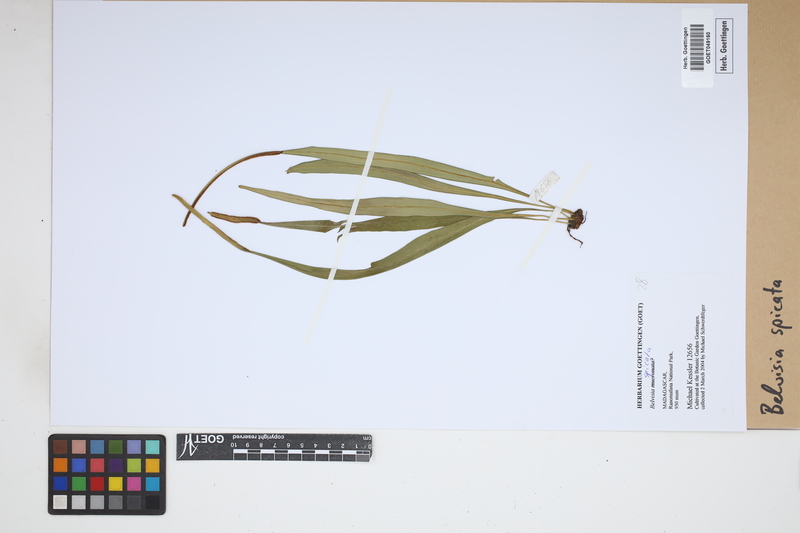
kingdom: Plantae
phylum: Tracheophyta
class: Polypodiopsida
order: Polypodiales
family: Polypodiaceae
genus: Lepisorus
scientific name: Lepisorus spicatus
